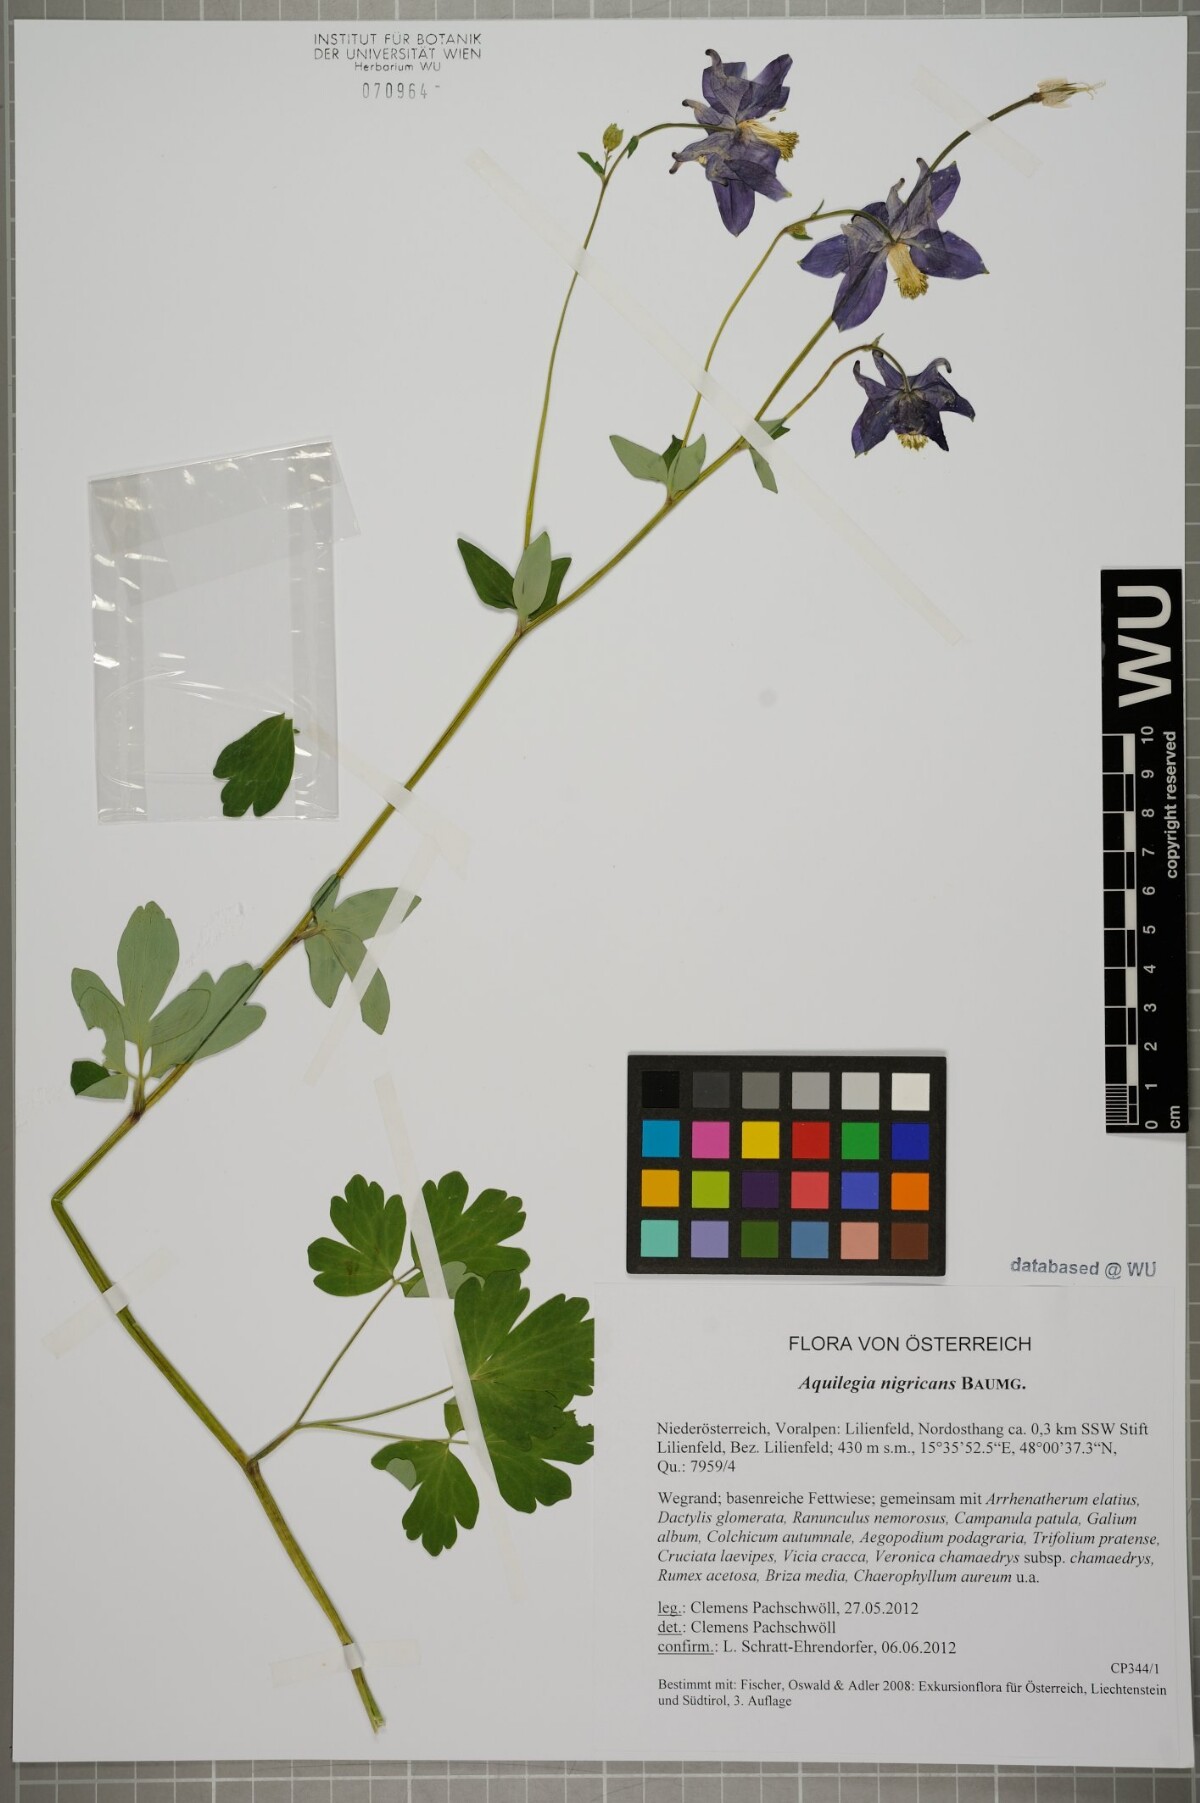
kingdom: Plantae
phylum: Tracheophyta
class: Magnoliopsida
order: Ranunculales
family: Ranunculaceae
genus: Aquilegia
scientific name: Aquilegia nigricans
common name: Bulgarian columbine
